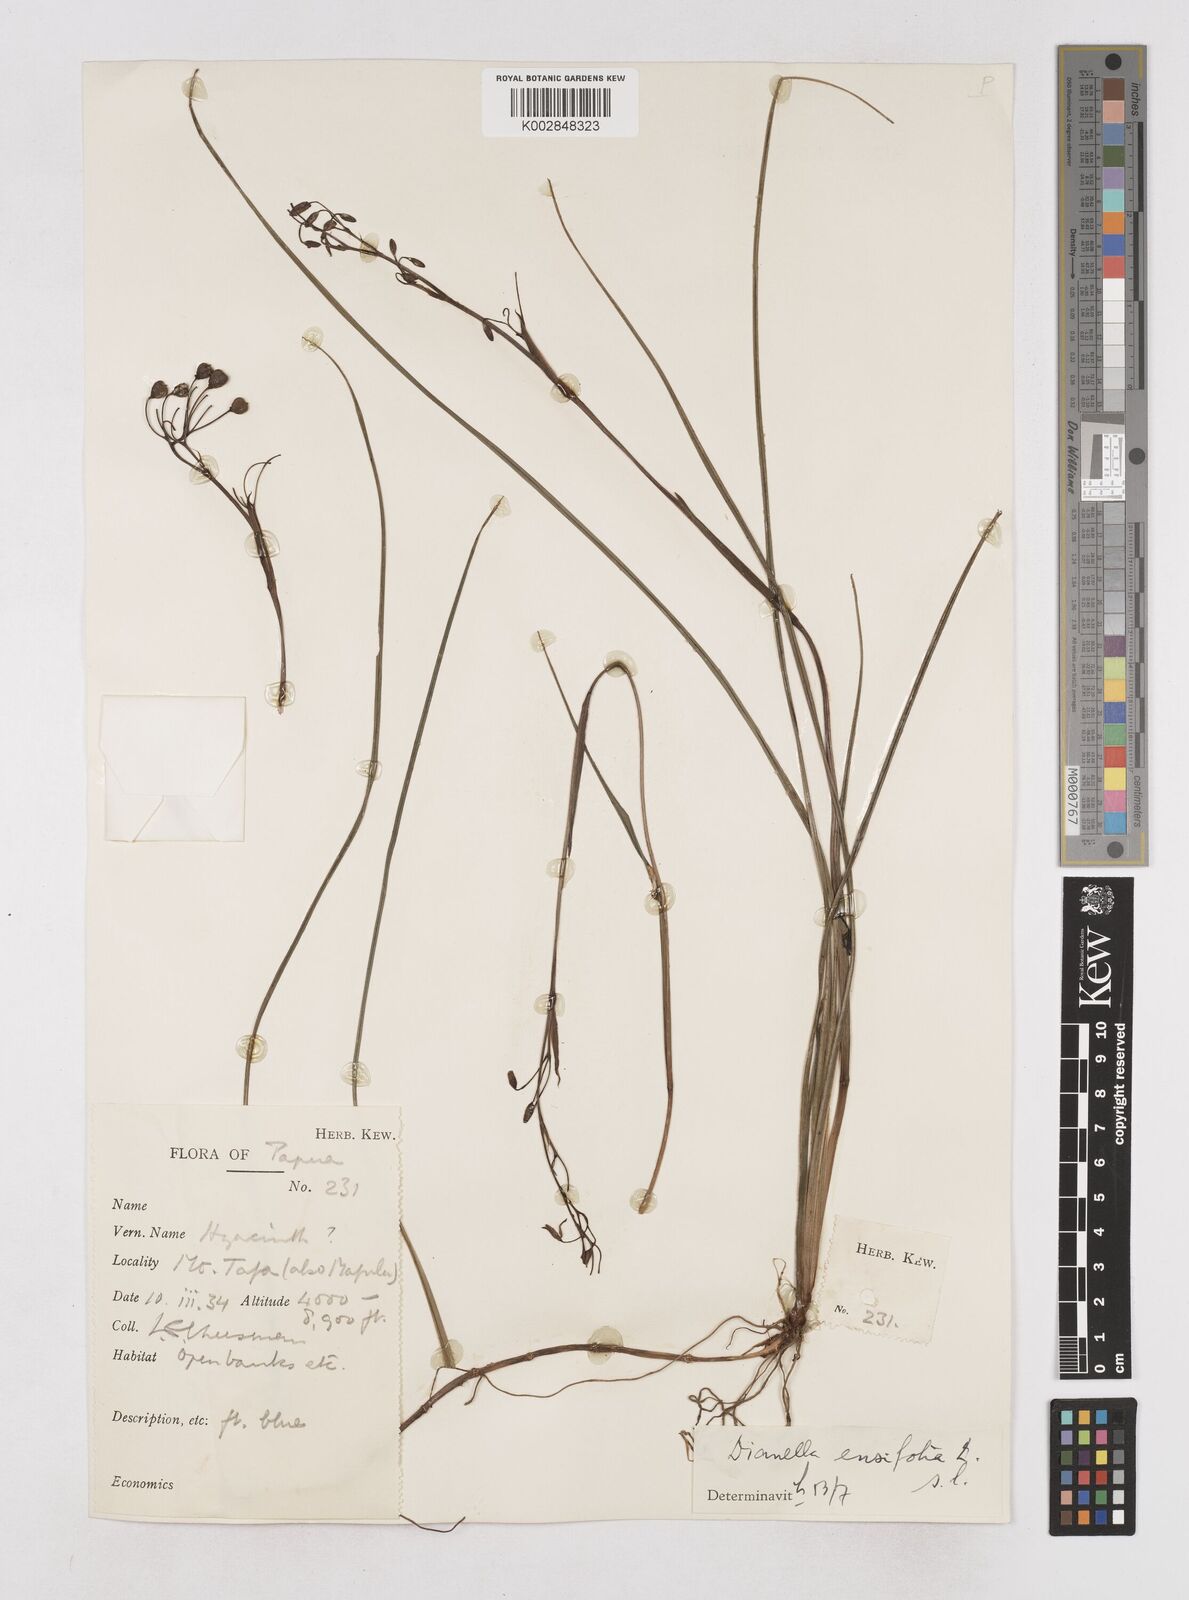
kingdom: Plantae
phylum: Tracheophyta
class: Liliopsida
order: Asparagales
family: Asphodelaceae
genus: Dianella
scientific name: Dianella ensifolia
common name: New zealand lilyplant
